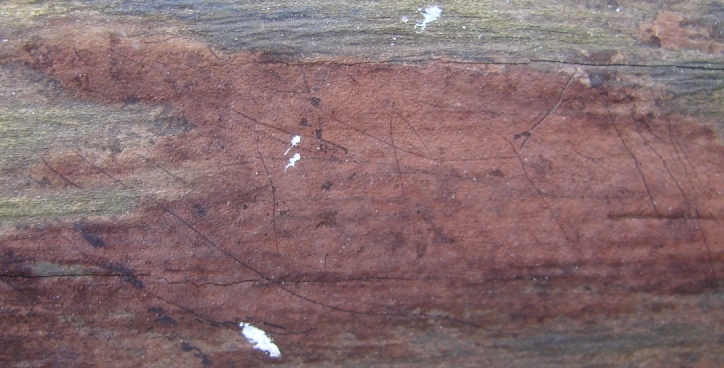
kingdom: Fungi
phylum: Ascomycota
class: Sordariomycetes
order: Xylariales
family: Hypoxylaceae
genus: Hypoxylon
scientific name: Hypoxylon macrocarpum
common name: skorpe-kulbær
